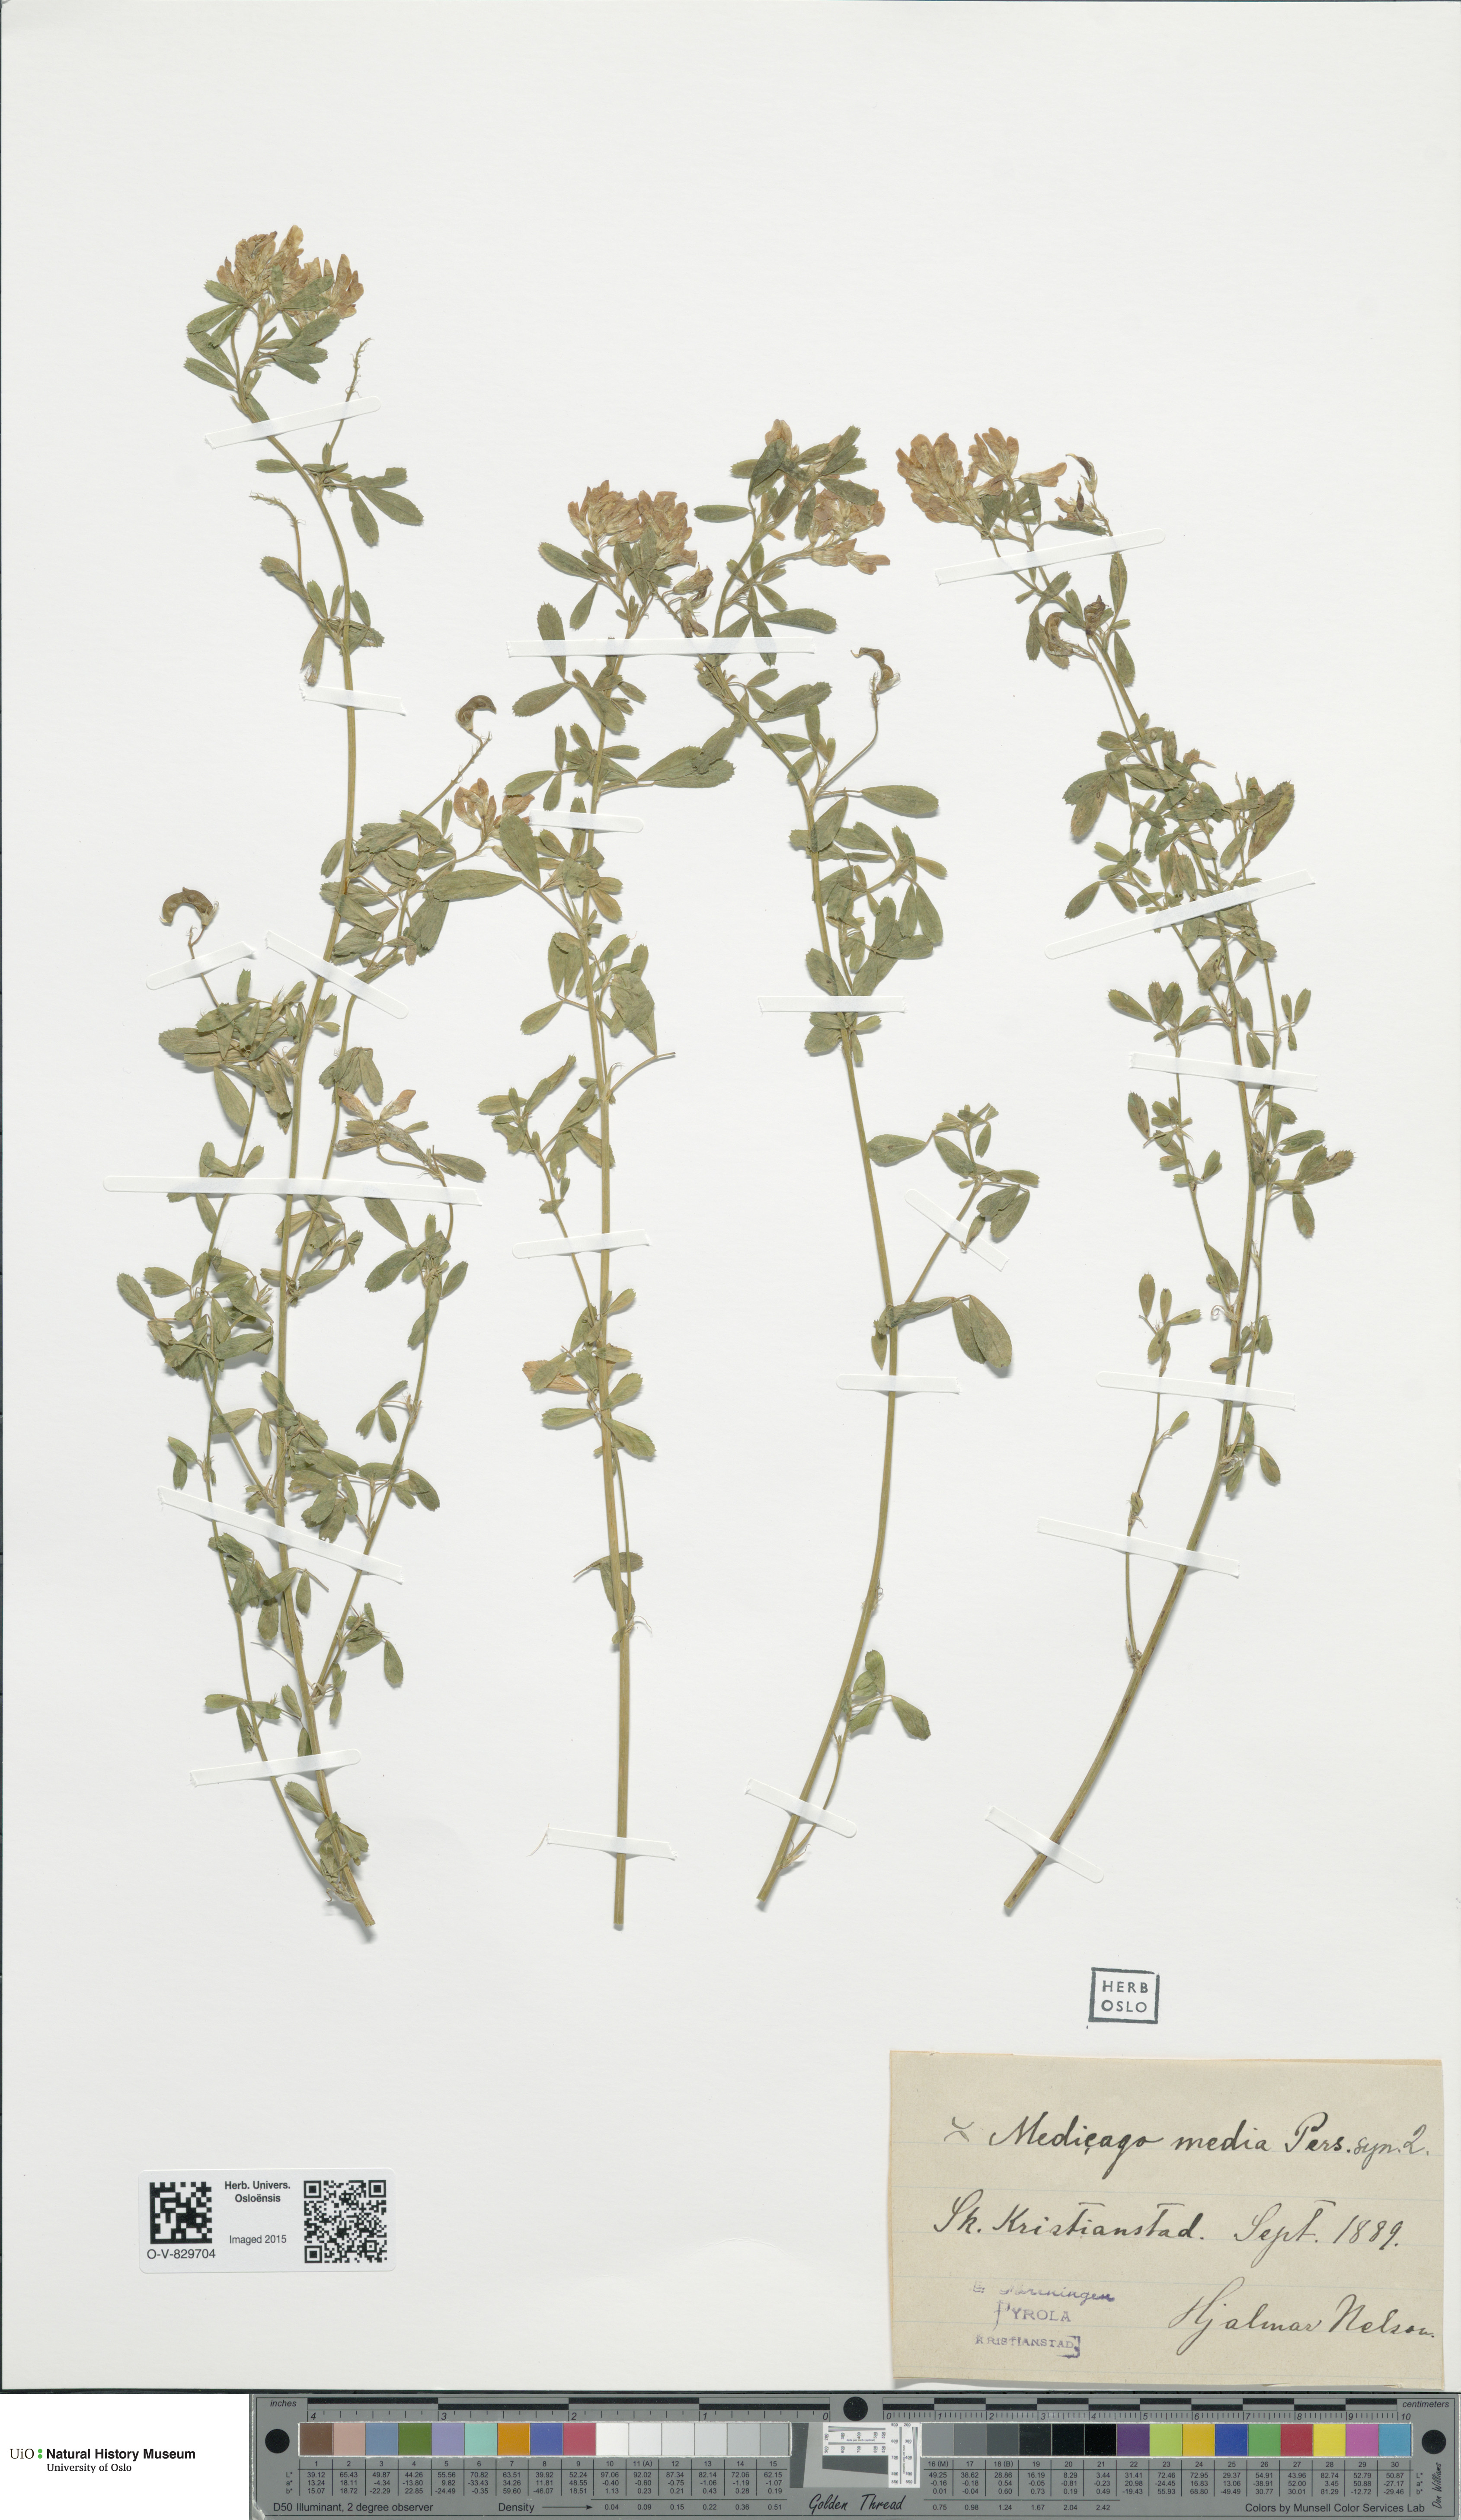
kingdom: Plantae
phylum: Tracheophyta
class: Magnoliopsida
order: Fabales
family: Fabaceae
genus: Medicago
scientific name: Medicago varia
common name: Sand lucerne
